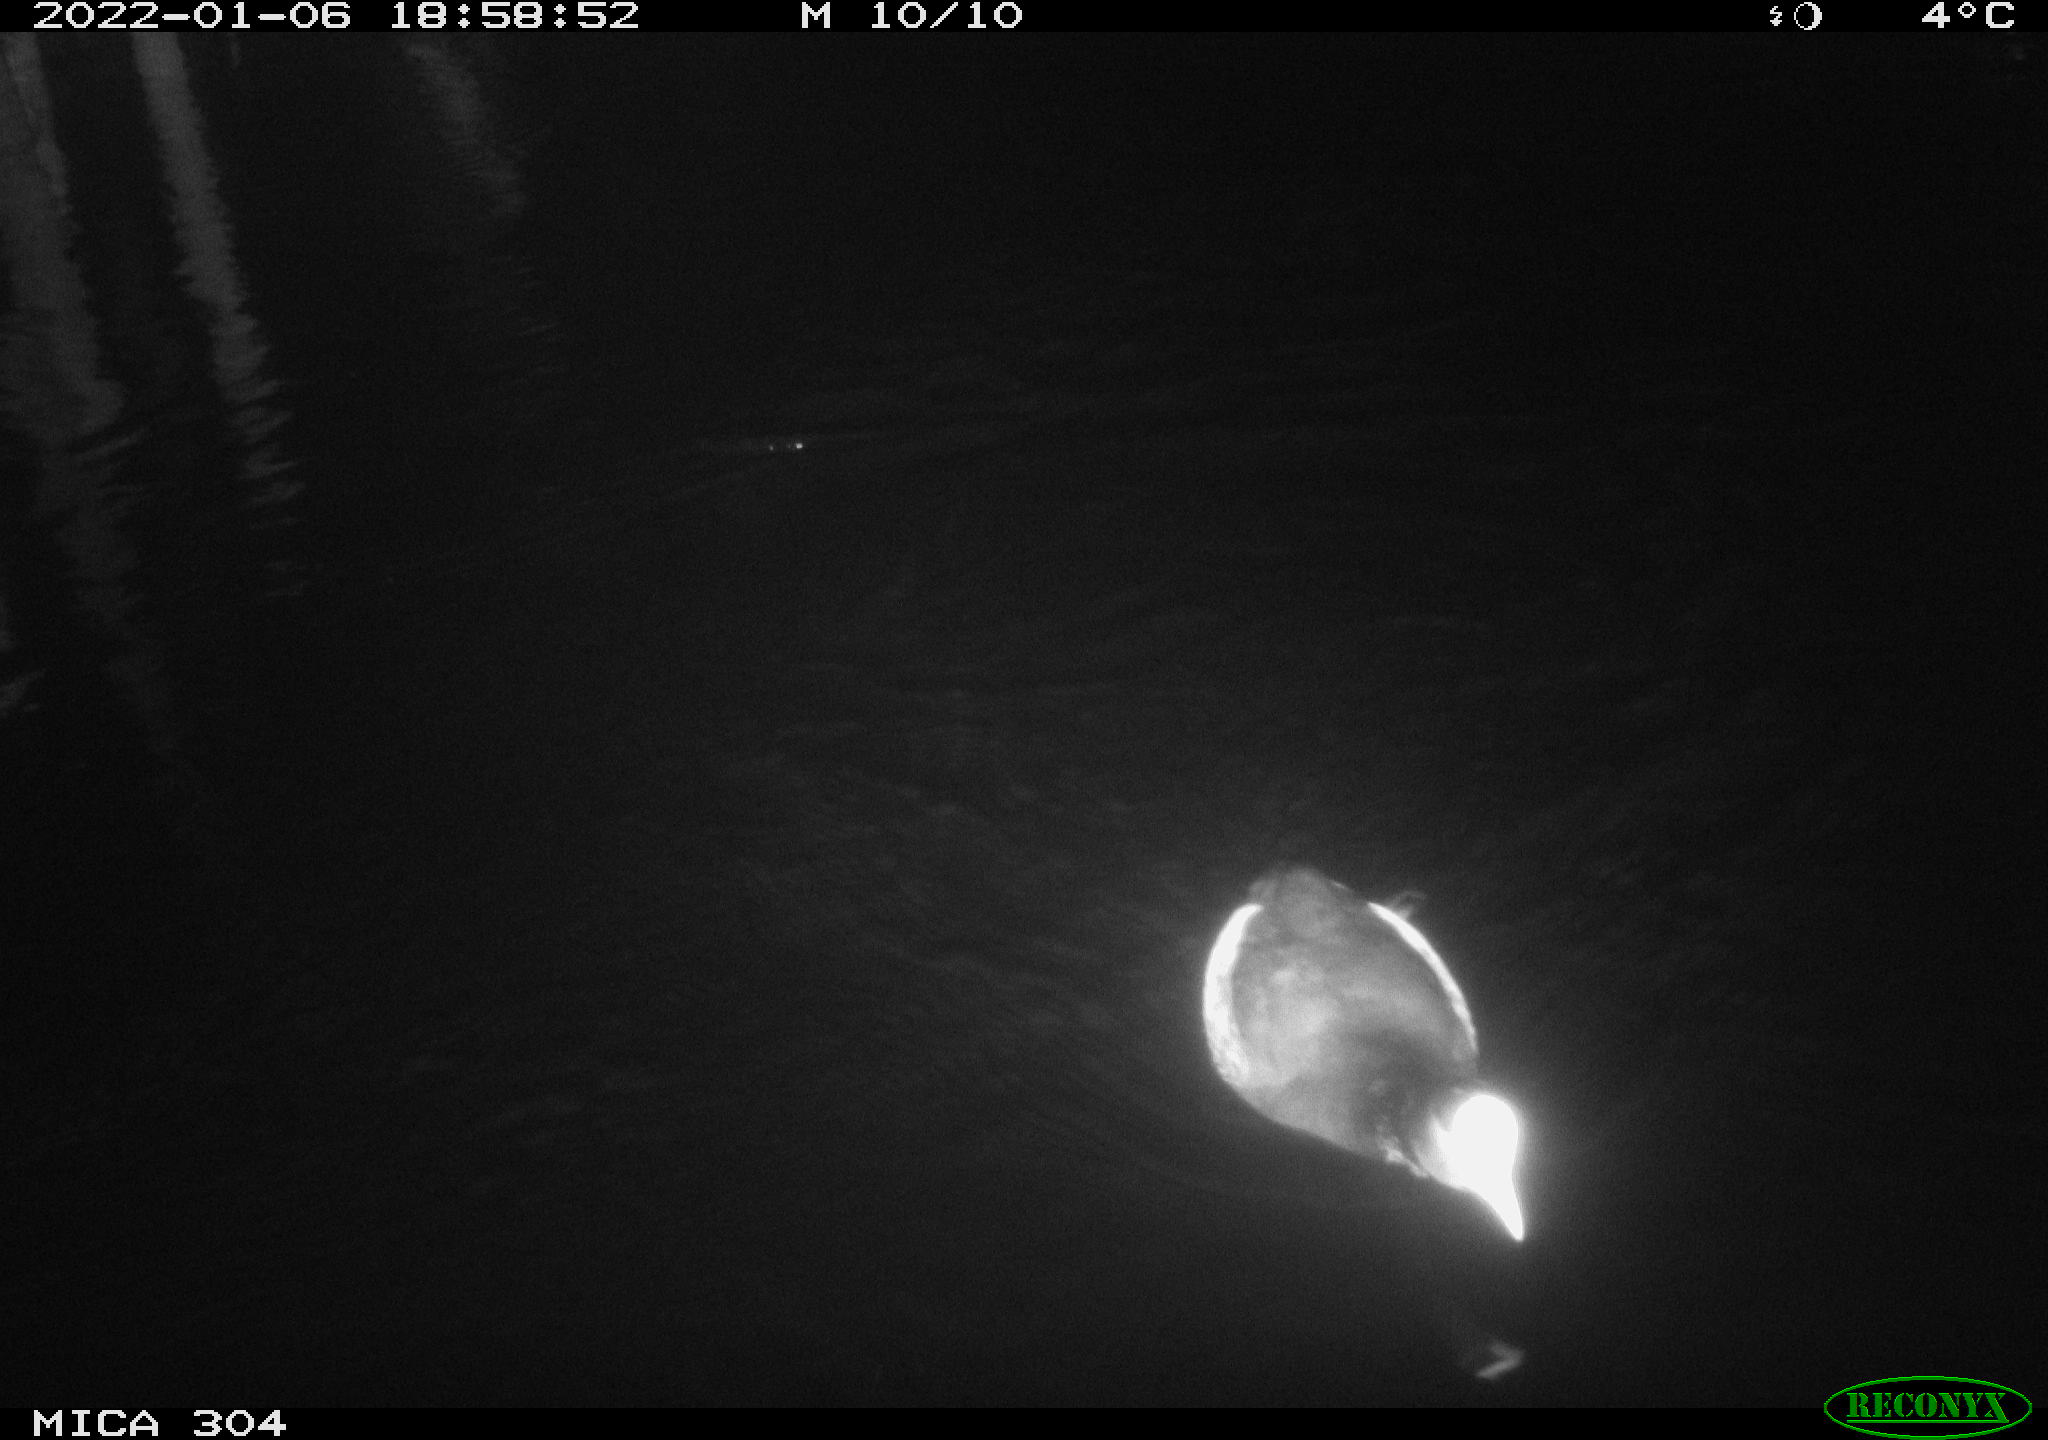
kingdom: Animalia
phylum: Chordata
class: Aves
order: Gruiformes
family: Rallidae
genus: Gallinula
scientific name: Gallinula chloropus
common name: Common moorhen
